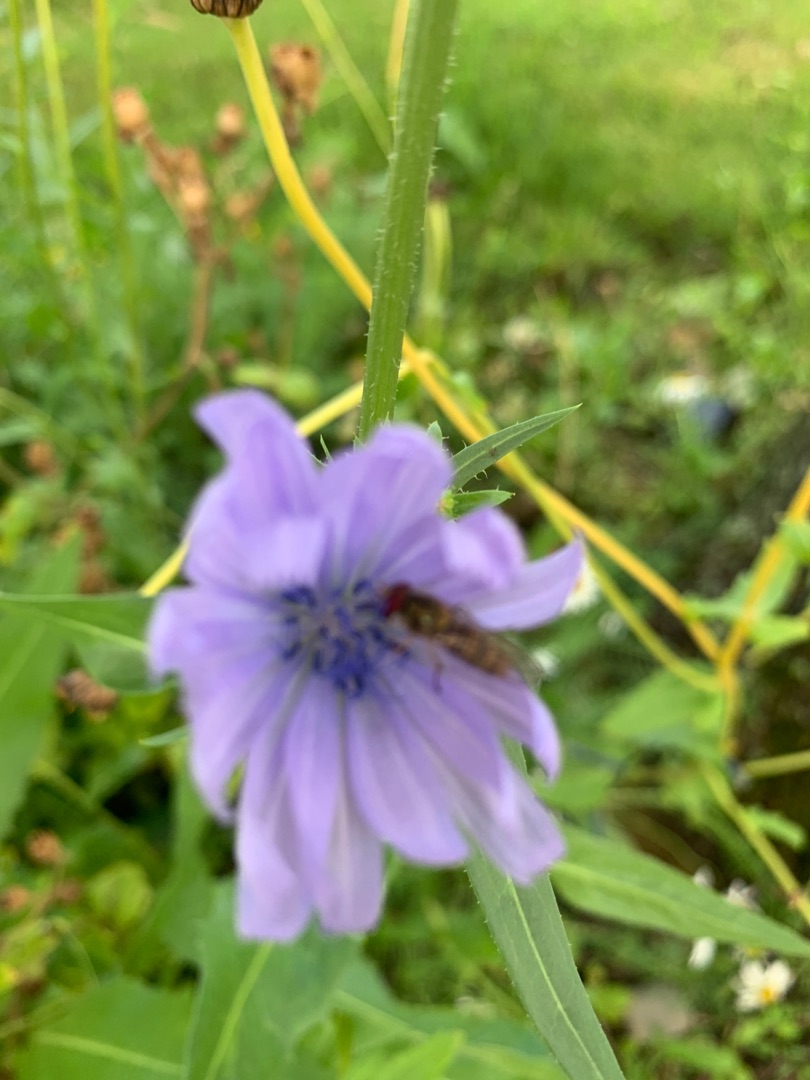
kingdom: Plantae
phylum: Tracheophyta
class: Magnoliopsida
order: Asterales
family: Asteraceae
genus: Cichorium
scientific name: Cichorium intybus
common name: Cikorie
